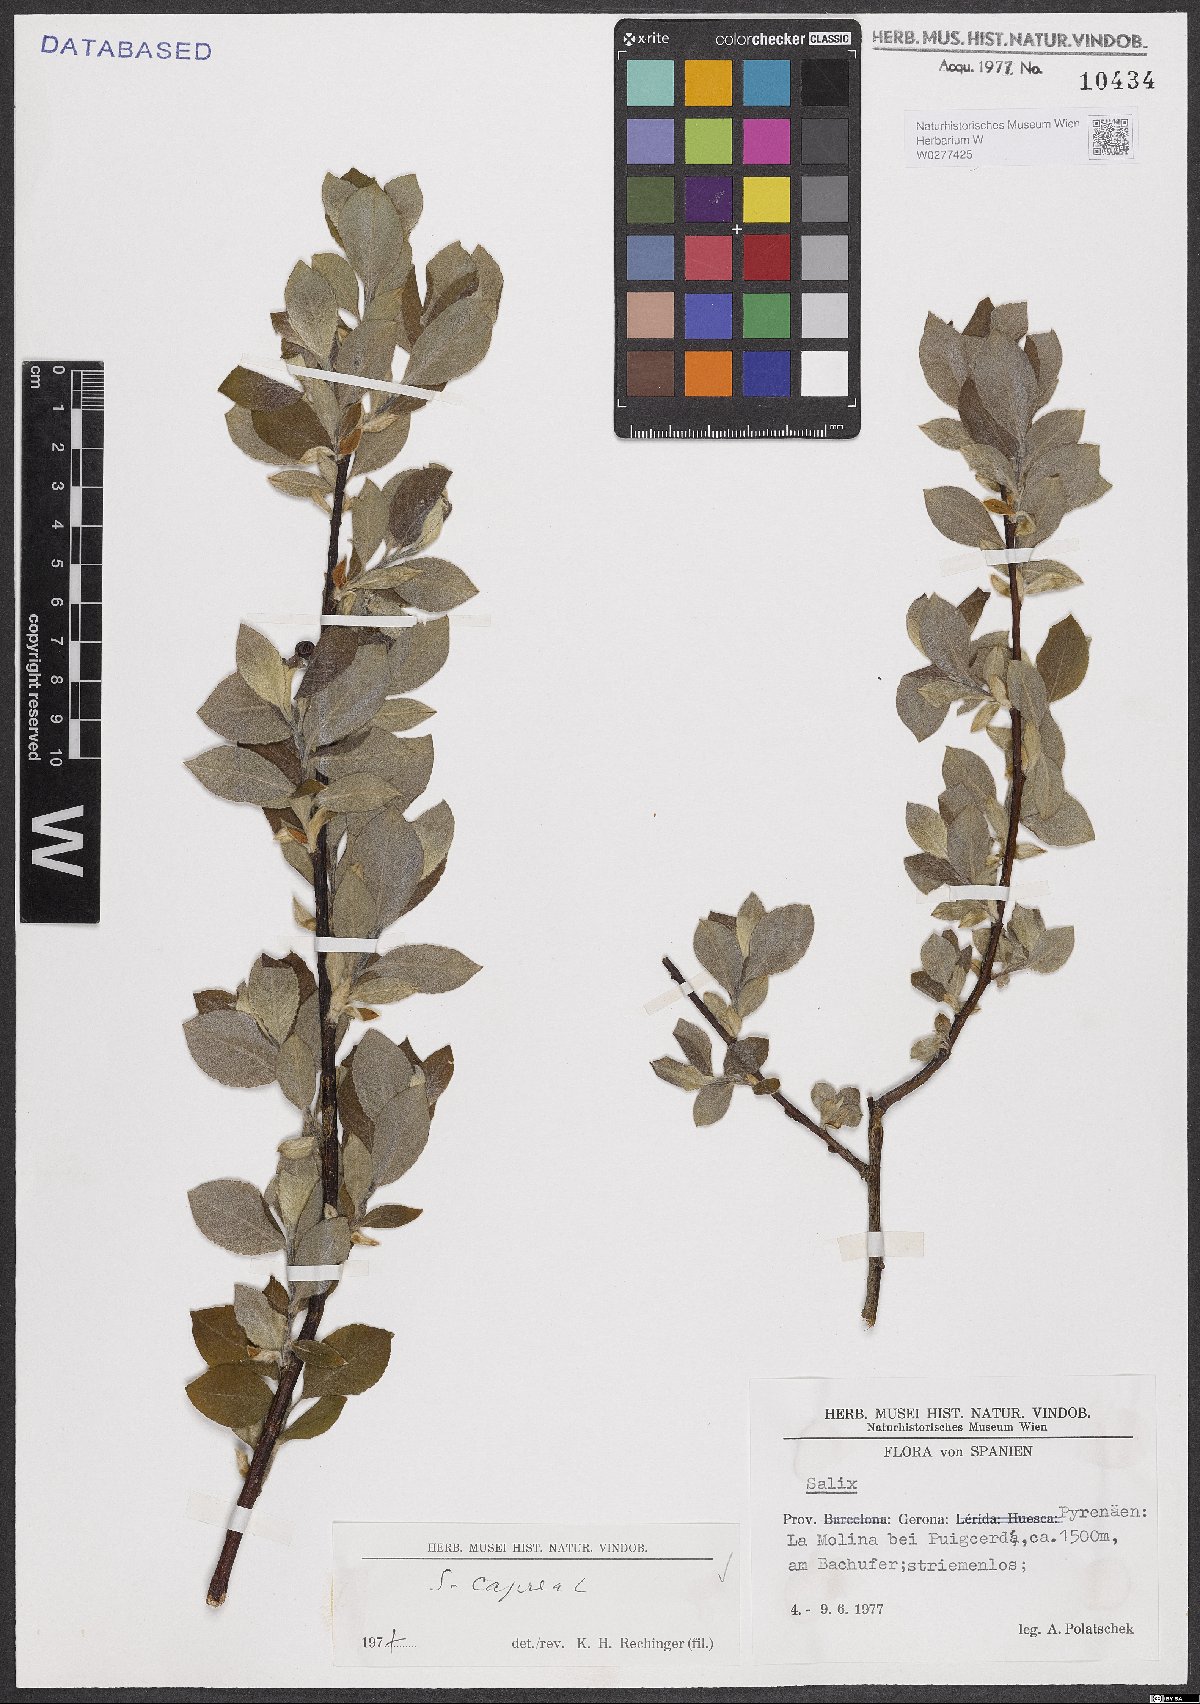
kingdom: Plantae
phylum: Tracheophyta
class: Magnoliopsida
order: Malpighiales
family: Salicaceae
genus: Salix
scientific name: Salix caprea
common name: Goat willow
